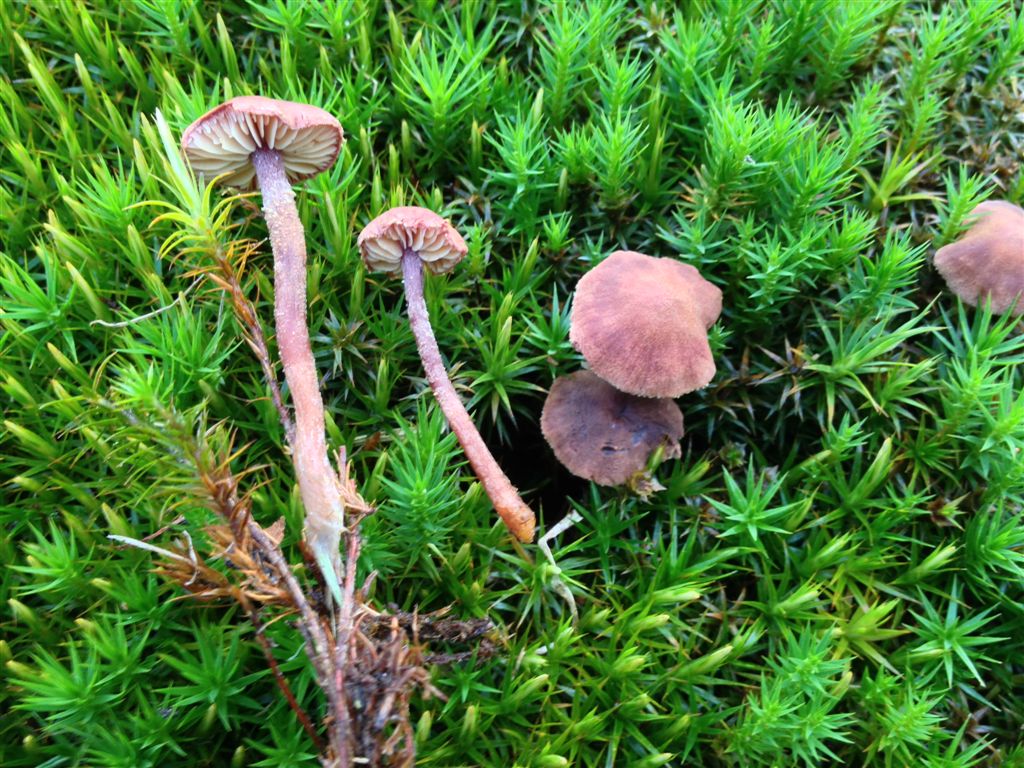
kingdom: Fungi
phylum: Basidiomycota
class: Agaricomycetes
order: Agaricales
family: Tricholomataceae
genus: Cystoderma
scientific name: Cystoderma lilacipes
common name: lillafodet grynhat
